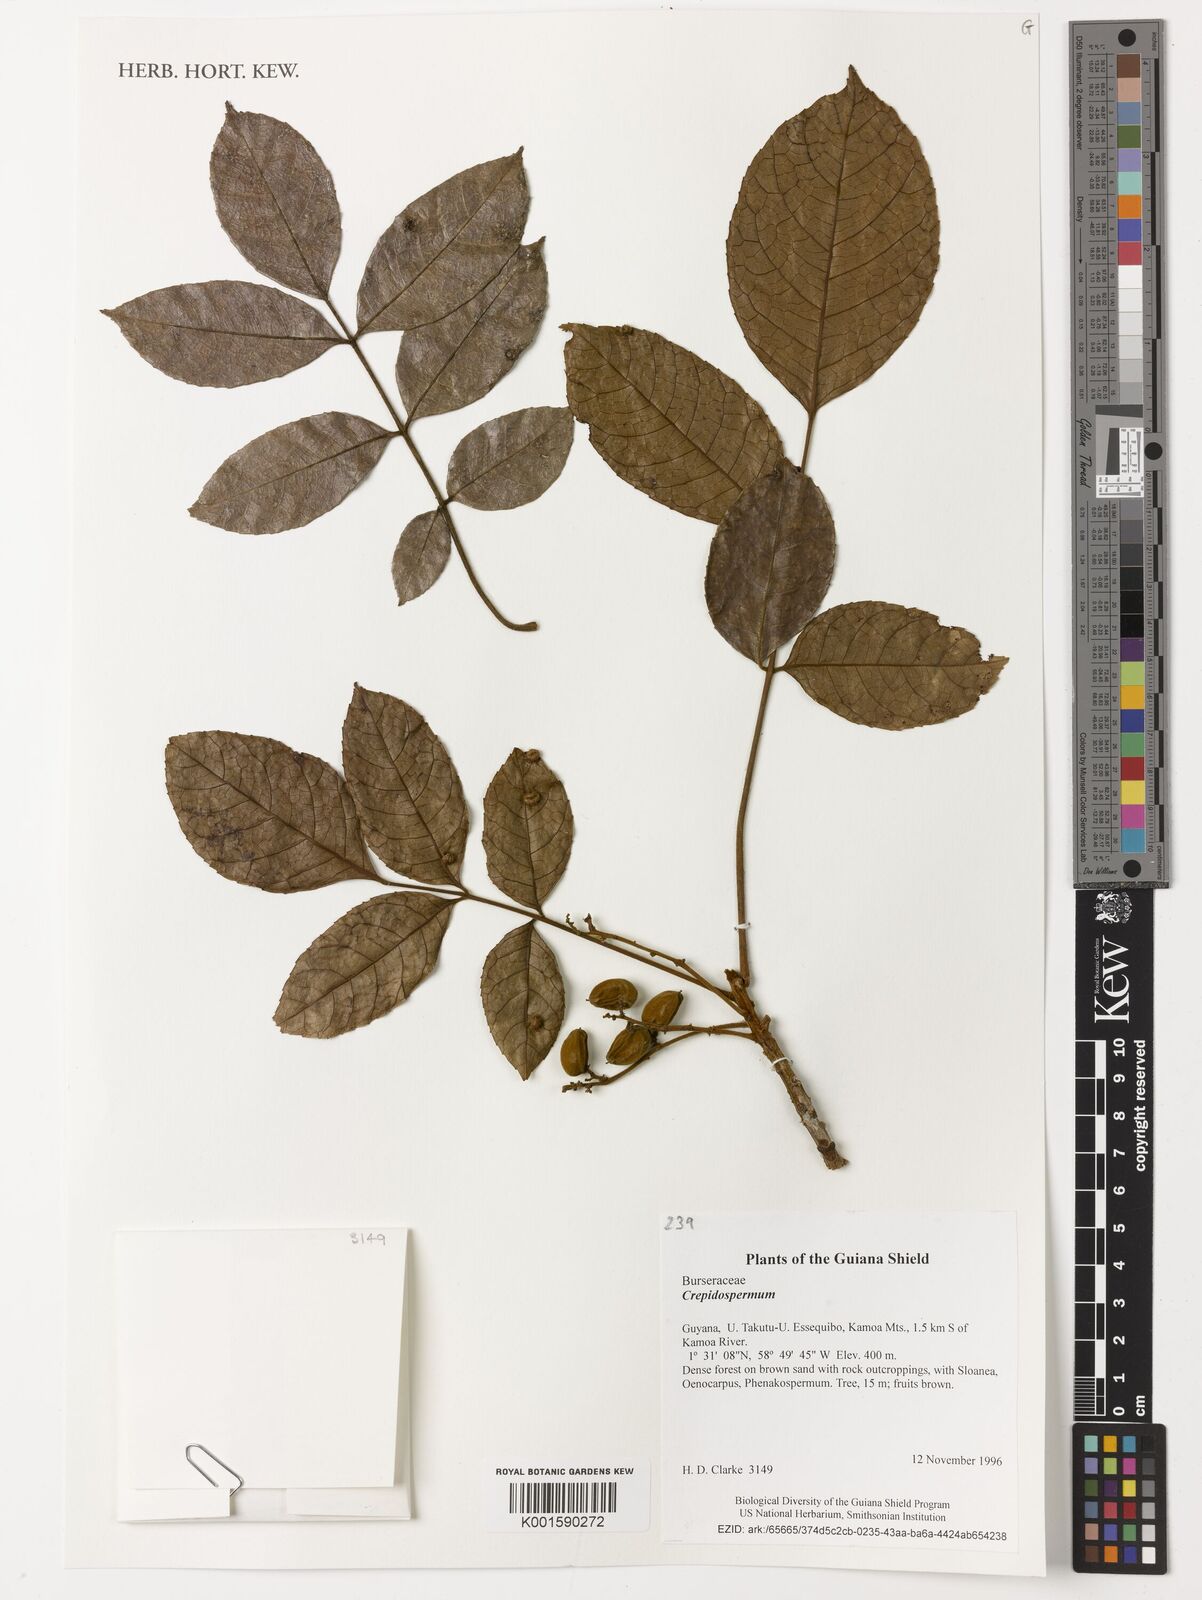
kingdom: Plantae
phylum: Tracheophyta
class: Magnoliopsida
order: Sapindales
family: Burseraceae
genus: Crepidospermum
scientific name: Crepidospermum
